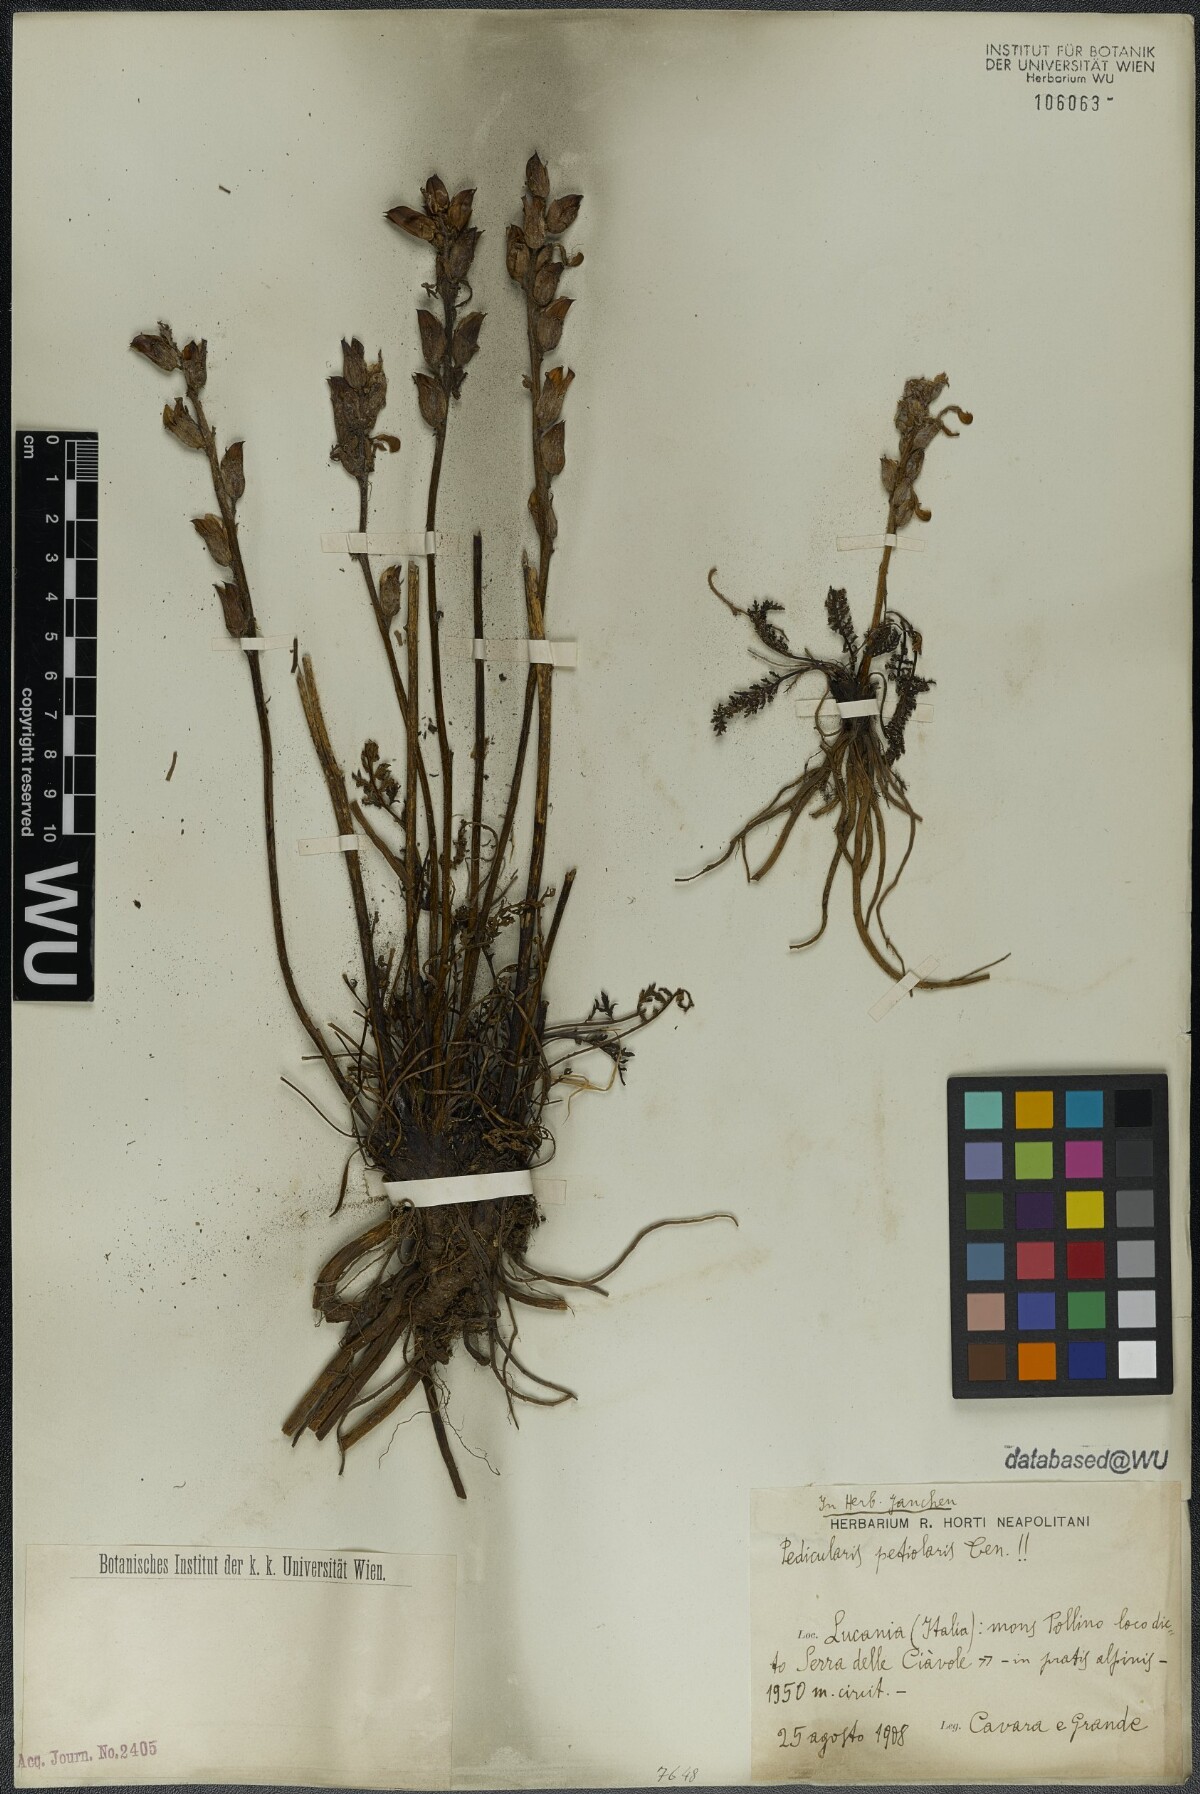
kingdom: Plantae
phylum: Tracheophyta
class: Magnoliopsida
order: Lamiales
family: Orobanchaceae
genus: Pedicularis
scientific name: Pedicularis petiolaris
